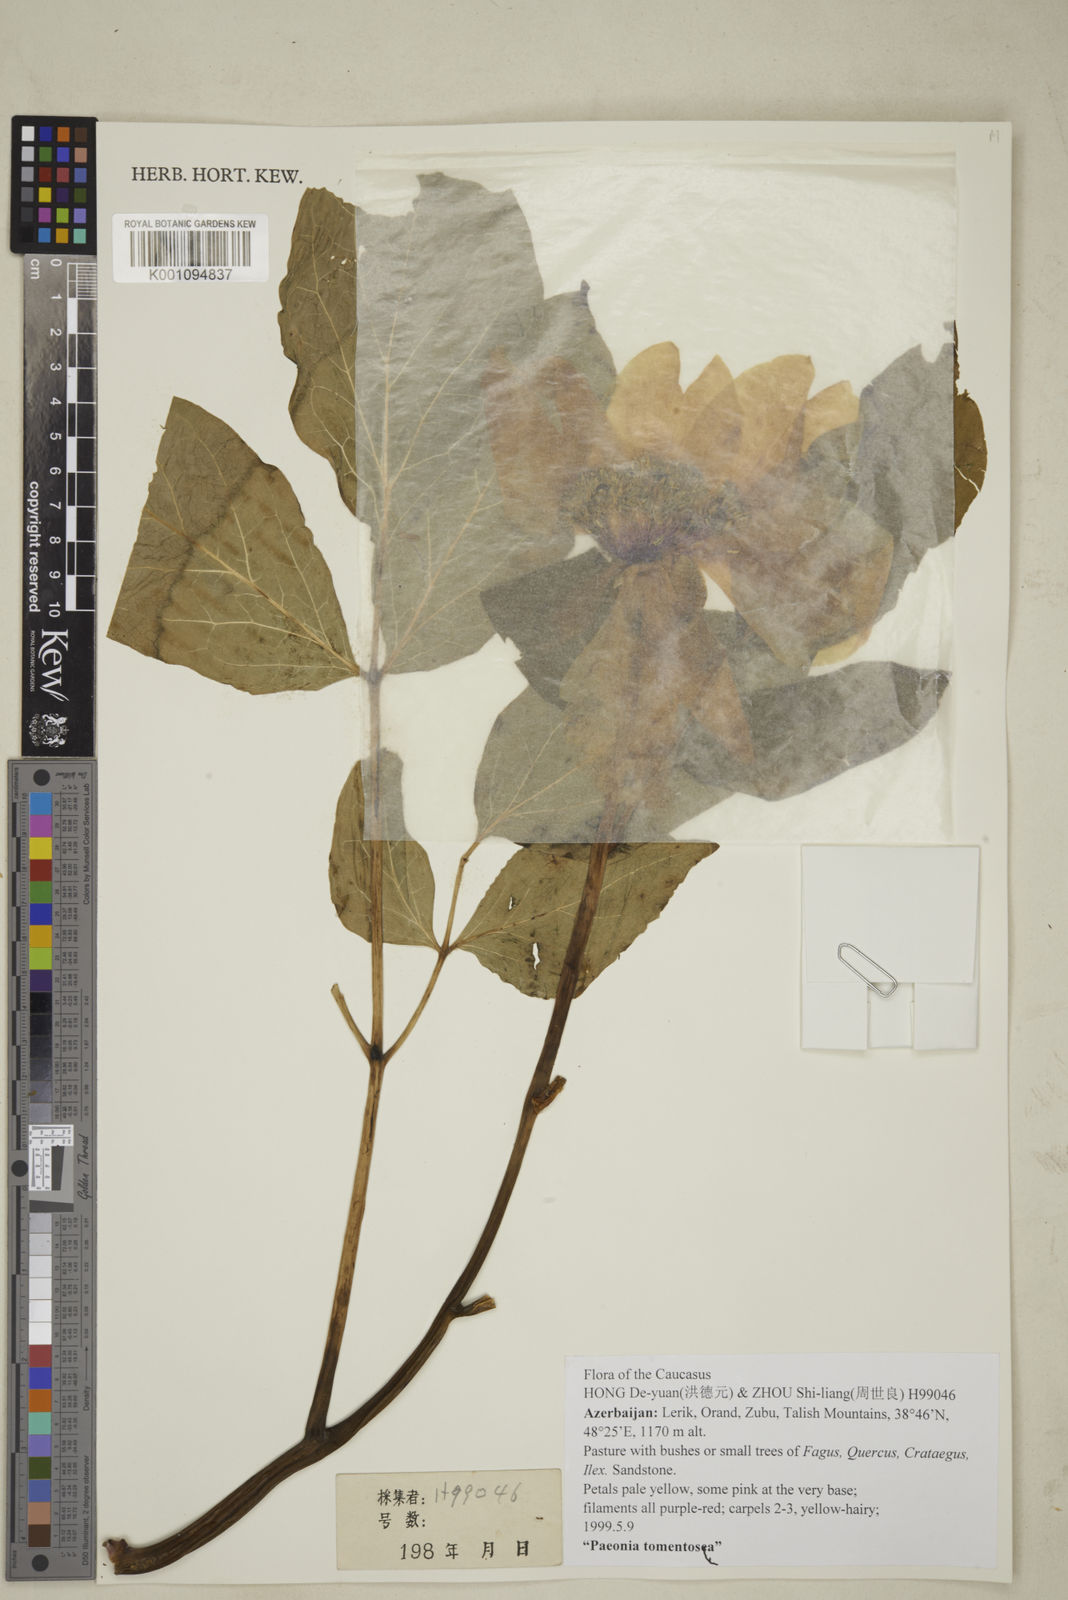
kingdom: Plantae
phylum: Tracheophyta
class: Magnoliopsida
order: Saxifragales
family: Paeoniaceae
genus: Paeonia
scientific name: Paeonia wittmanniana
